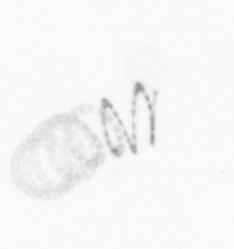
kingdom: Chromista
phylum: Ochrophyta
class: Bacillariophyceae
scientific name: Bacillariophyceae
